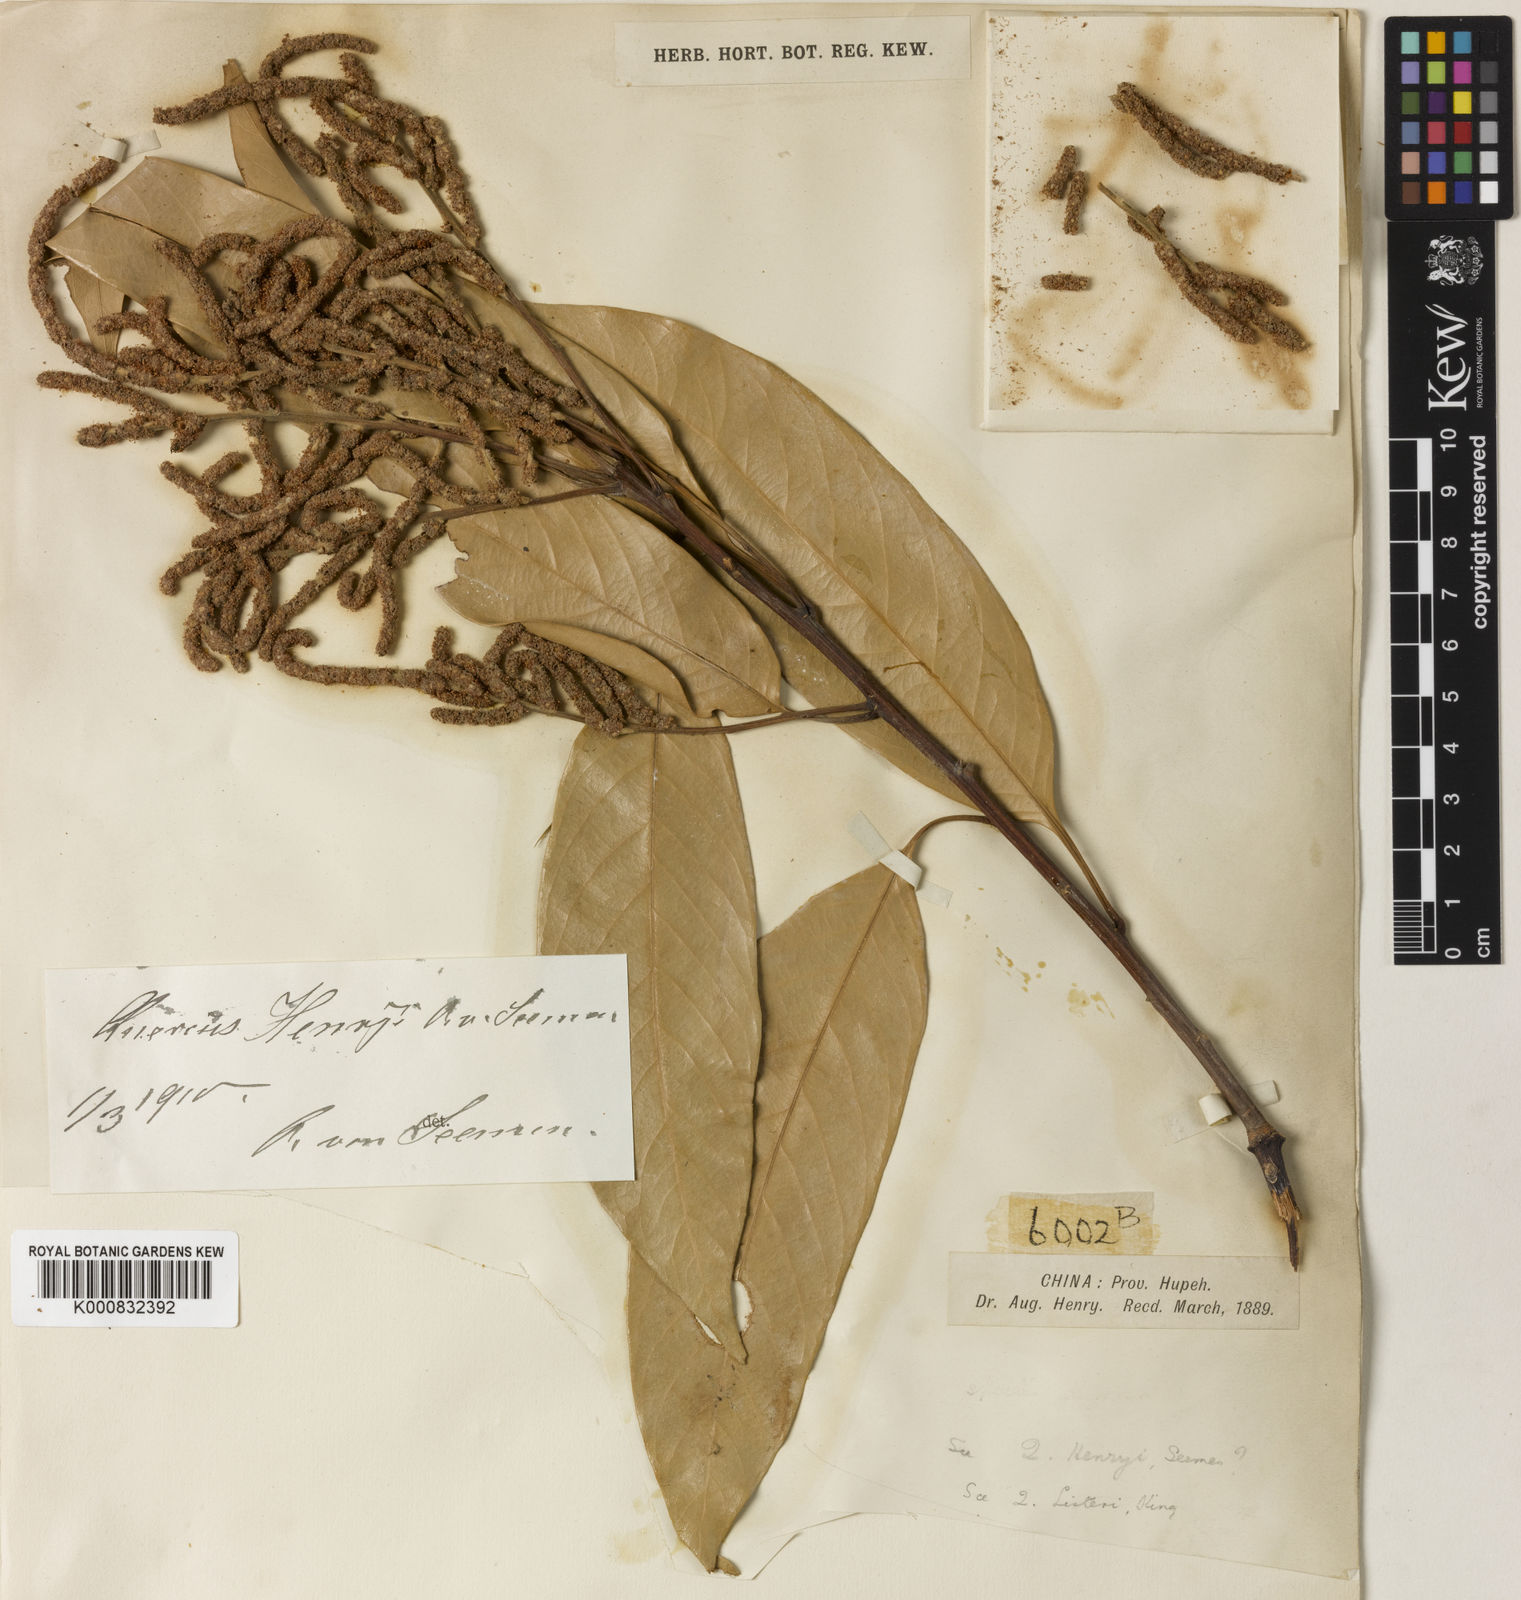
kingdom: Plantae
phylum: Tracheophyta
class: Magnoliopsida
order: Fagales
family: Fagaceae
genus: Lithocarpus
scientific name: Lithocarpus henryi
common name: Henry tanbark oak
